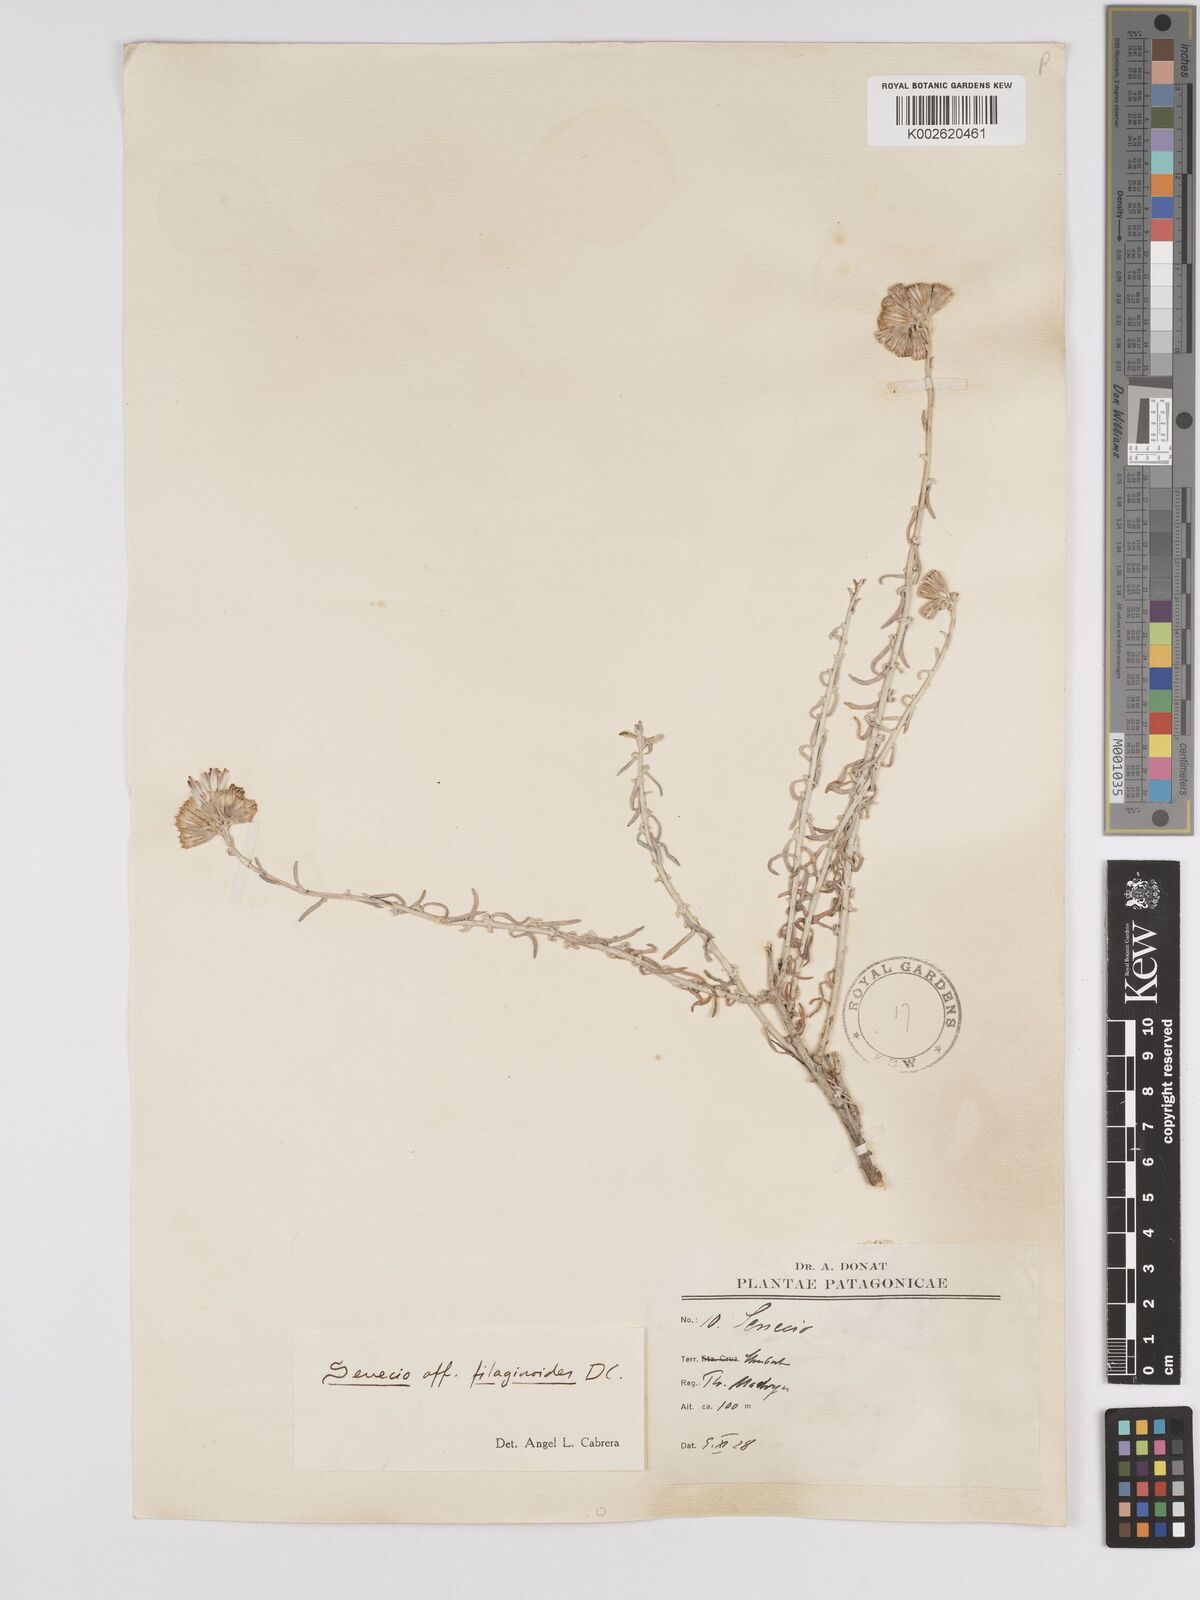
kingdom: Plantae
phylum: Tracheophyta
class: Magnoliopsida
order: Asterales
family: Asteraceae
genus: Senecio
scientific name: Senecio filaginoides
